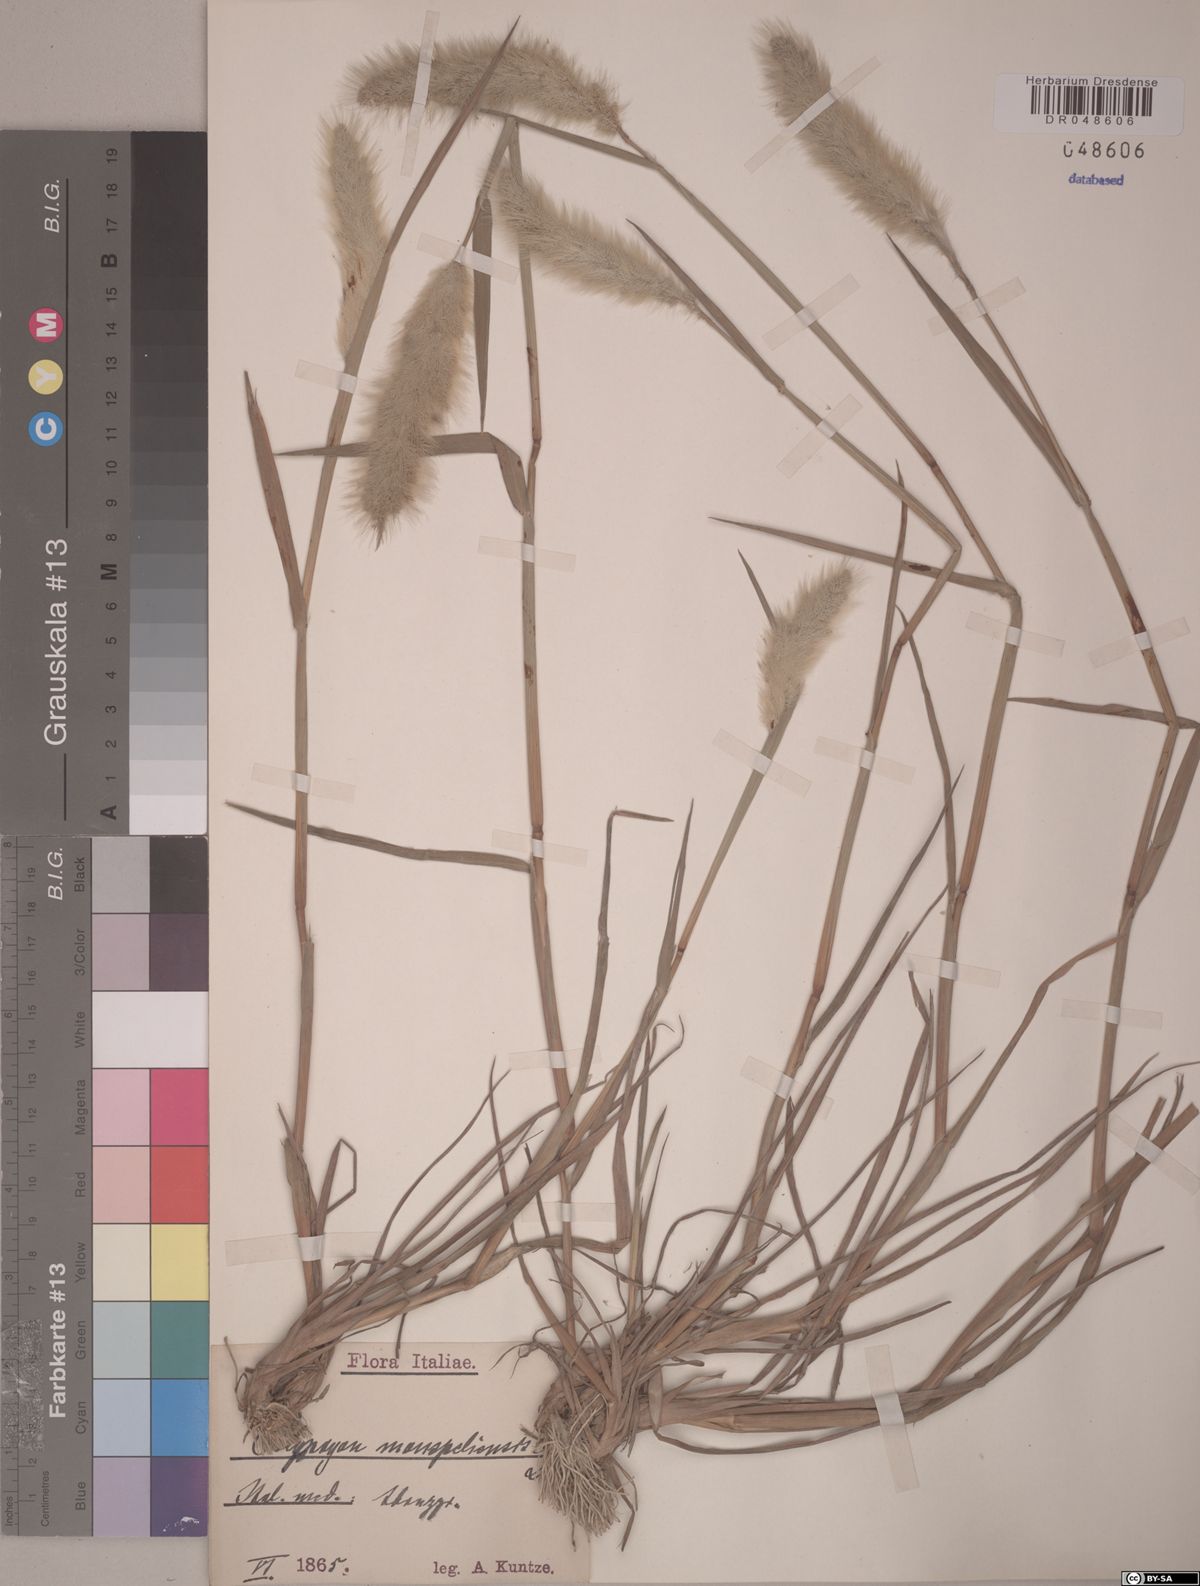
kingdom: Plantae
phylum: Tracheophyta
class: Liliopsida
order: Poales
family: Poaceae
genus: Polypogon
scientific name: Polypogon monspeliensis
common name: Annual rabbitsfoot grass
